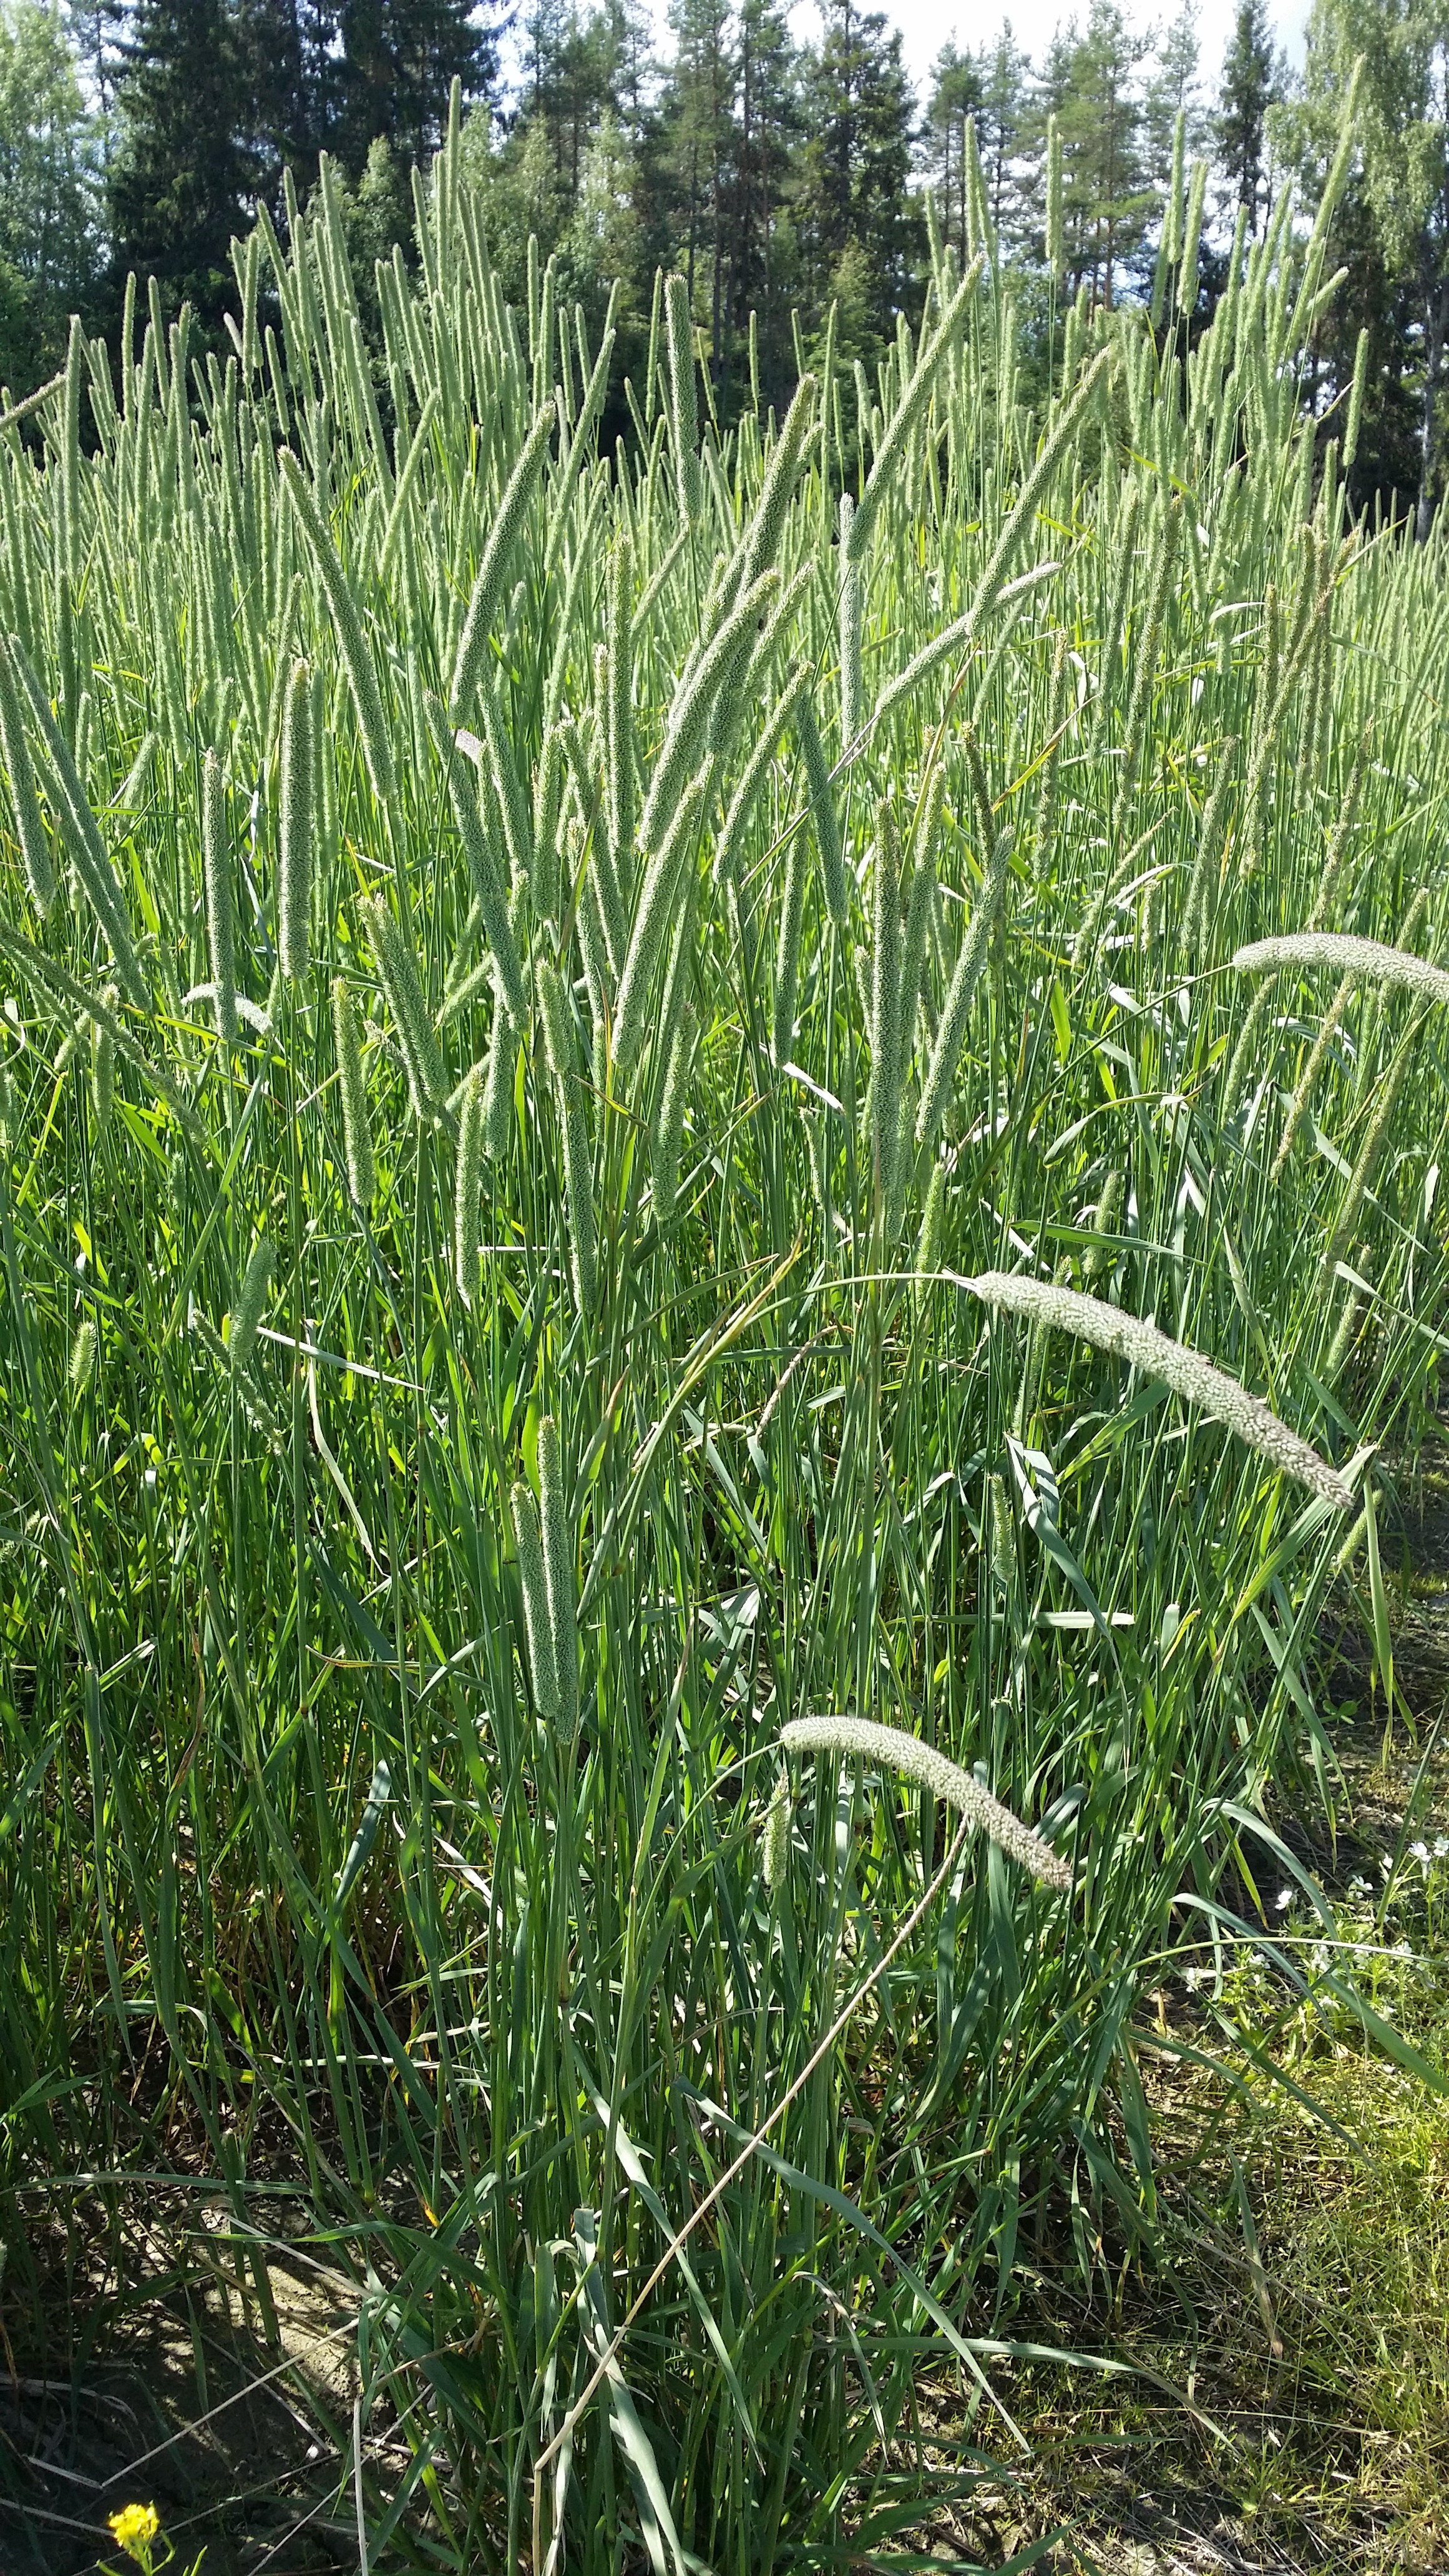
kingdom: Plantae
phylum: Tracheophyta
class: Liliopsida
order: Poales
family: Poaceae
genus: Phleum
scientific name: Phleum pratense
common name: Timothy grass
